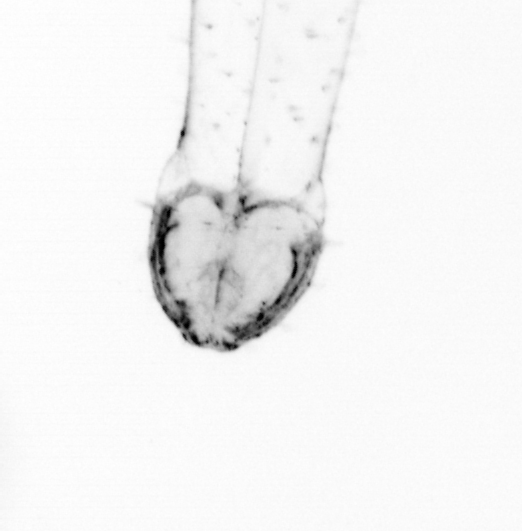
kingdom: Animalia
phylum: Chaetognatha
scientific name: Chaetognatha
